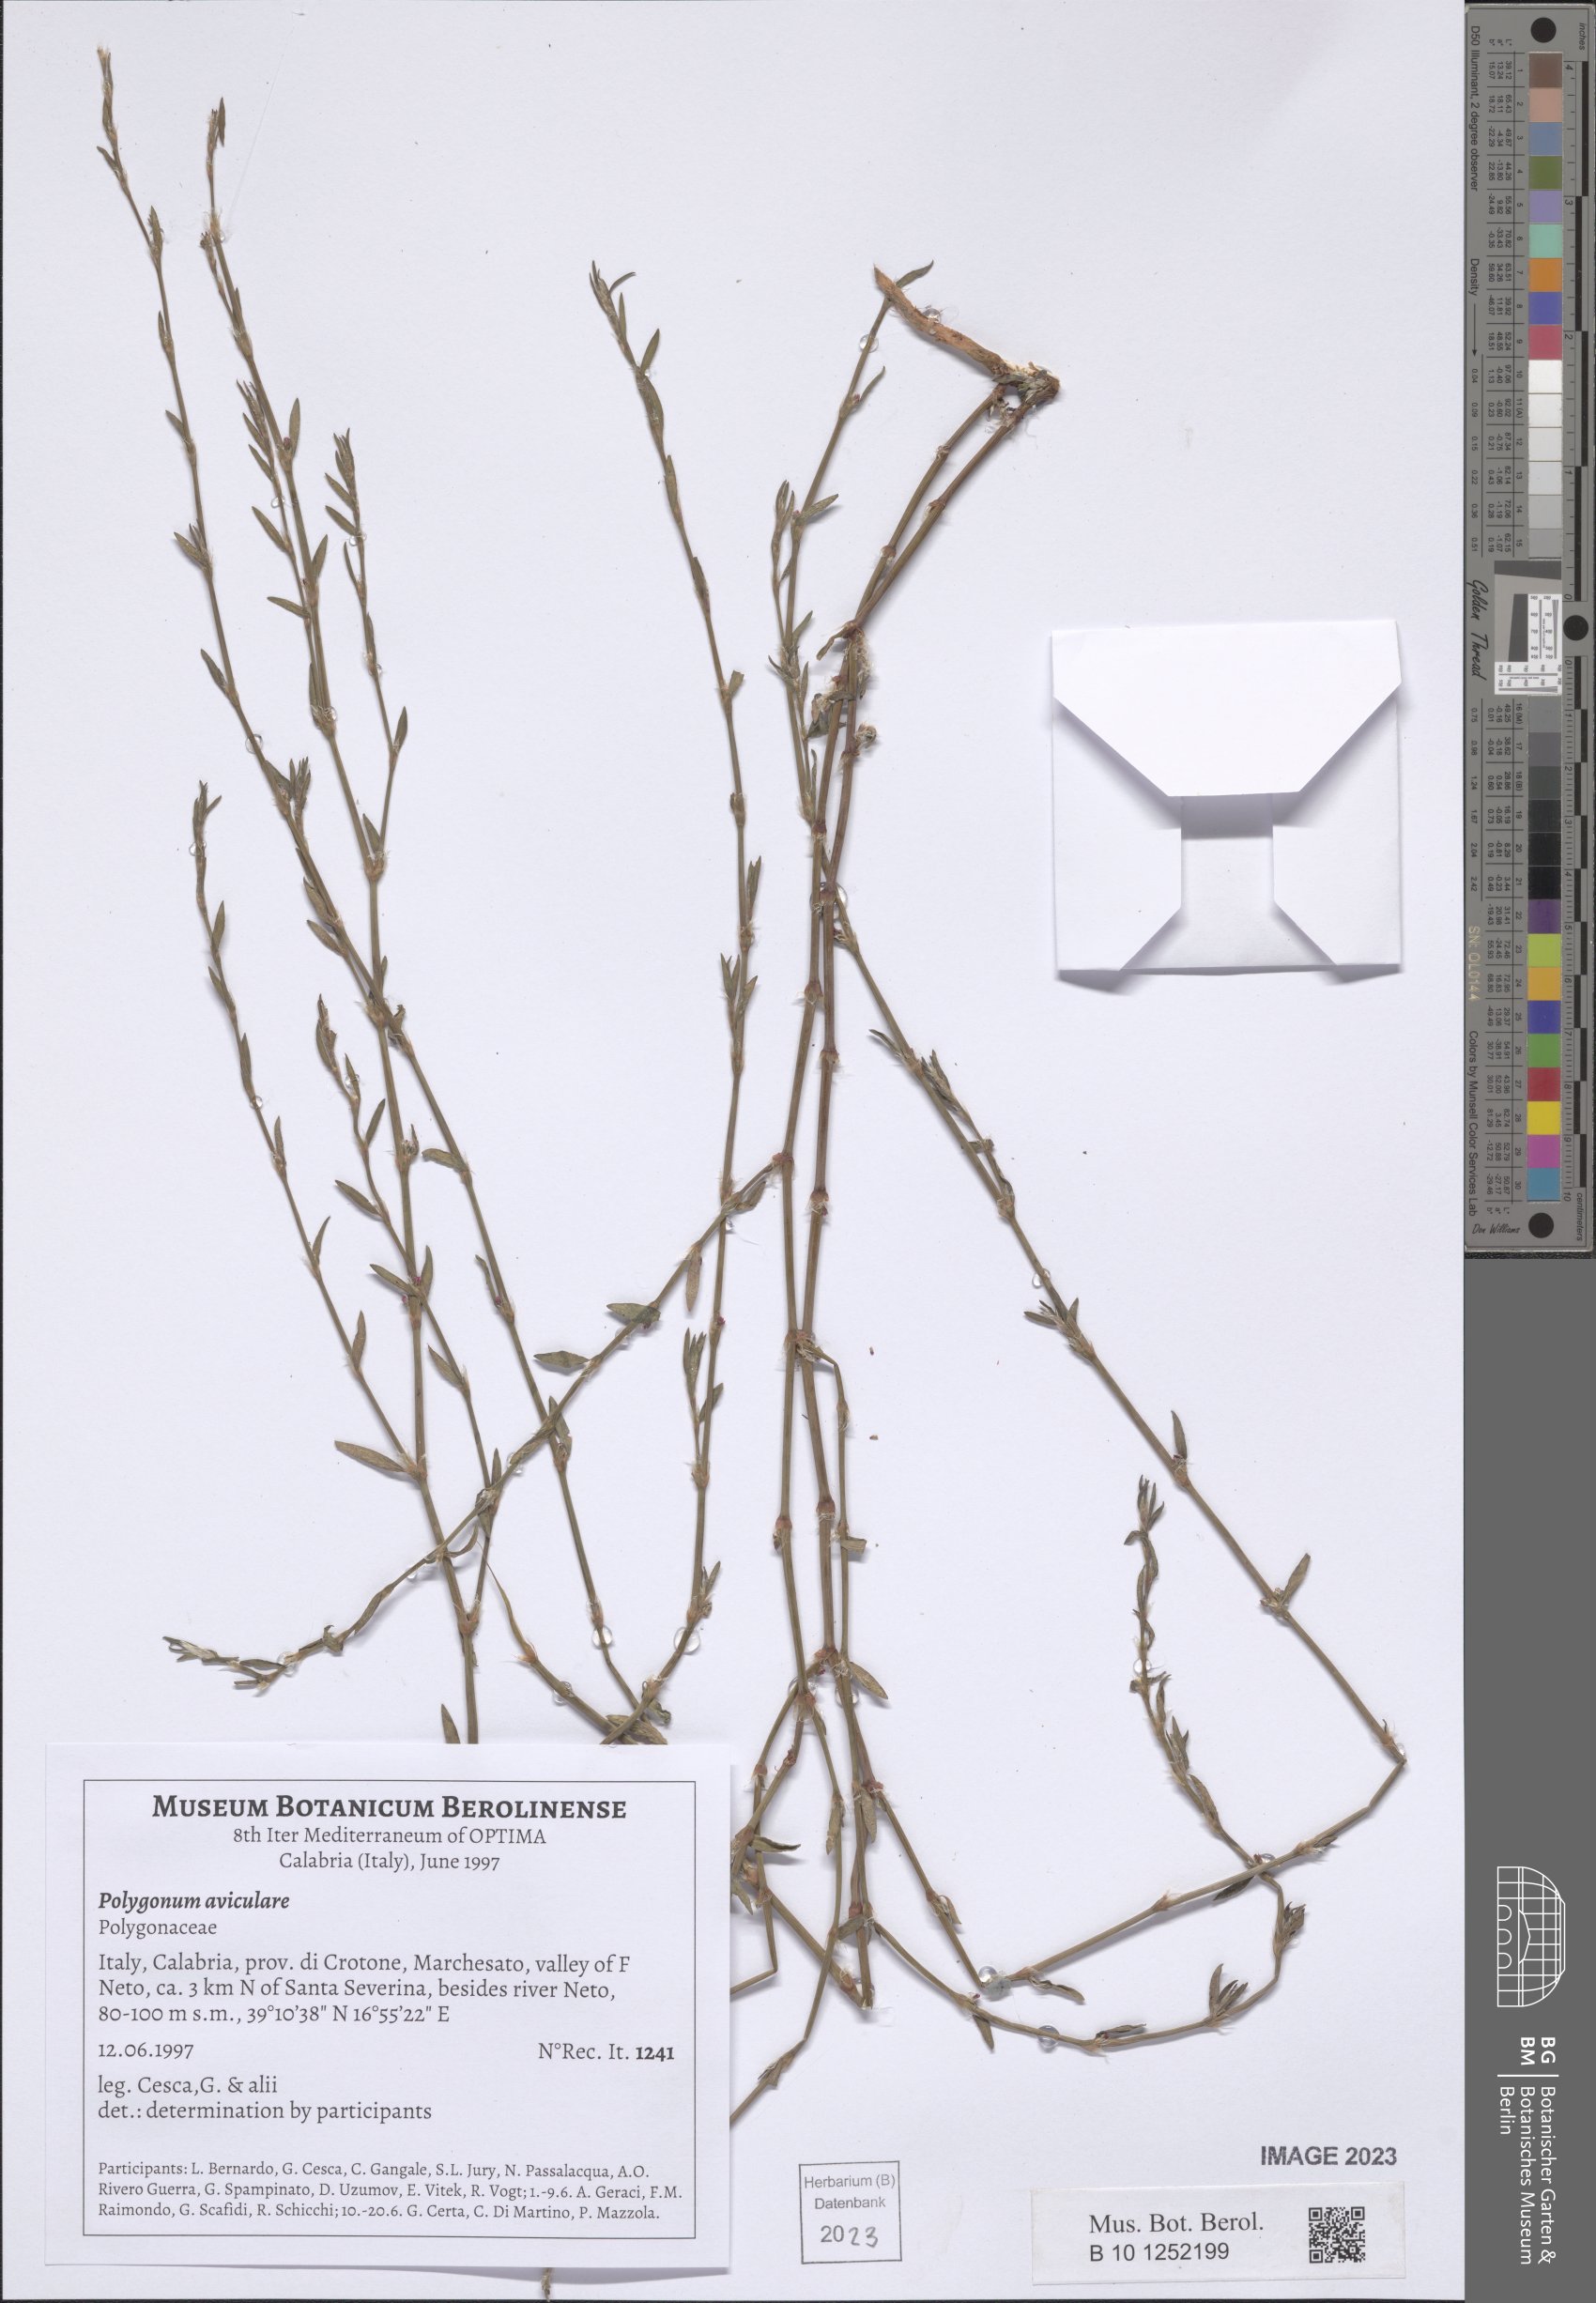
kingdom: Plantae
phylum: Tracheophyta
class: Magnoliopsida
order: Caryophyllales
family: Polygonaceae
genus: Polygonum
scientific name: Polygonum aviculare
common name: Prostrate knotweed
